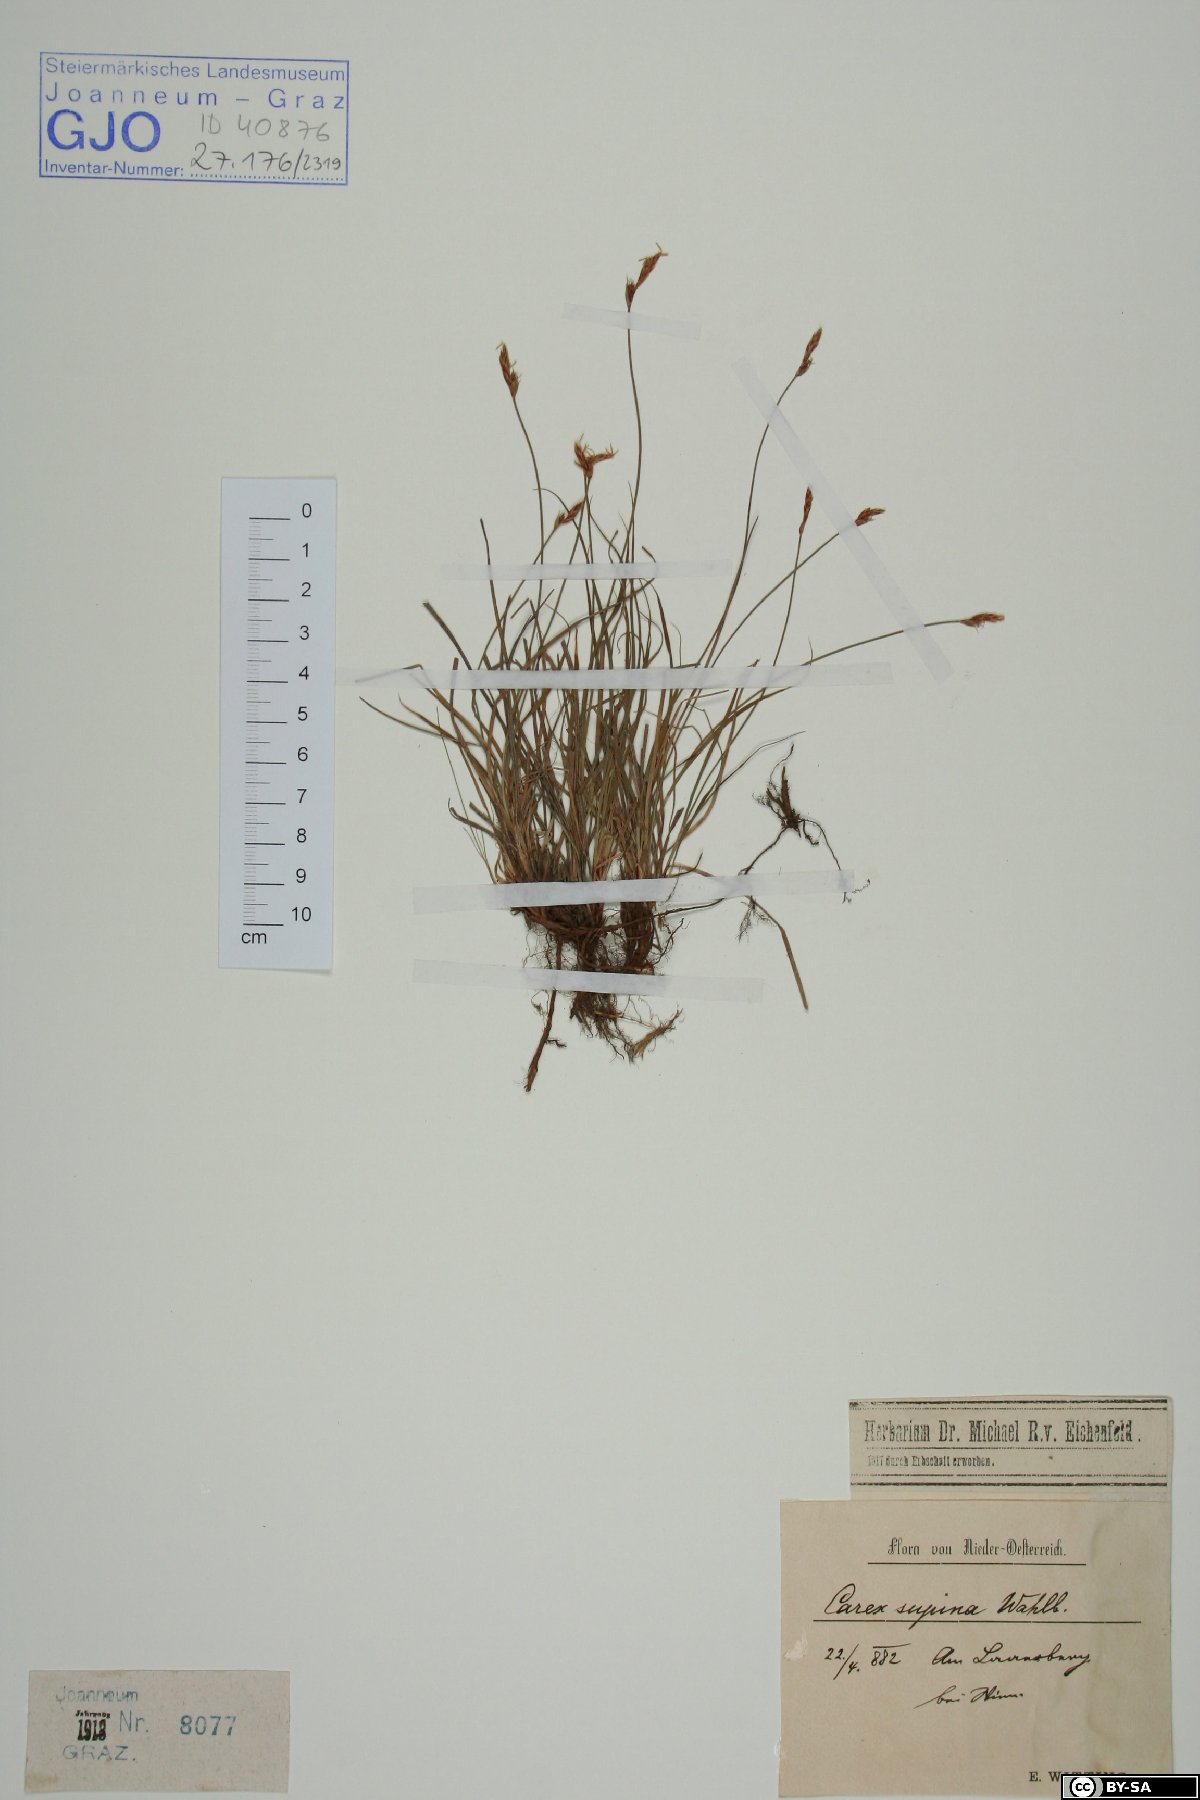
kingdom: Plantae
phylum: Tracheophyta
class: Liliopsida
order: Poales
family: Cyperaceae
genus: Carex
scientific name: Carex supina
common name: Lying-back sedge
